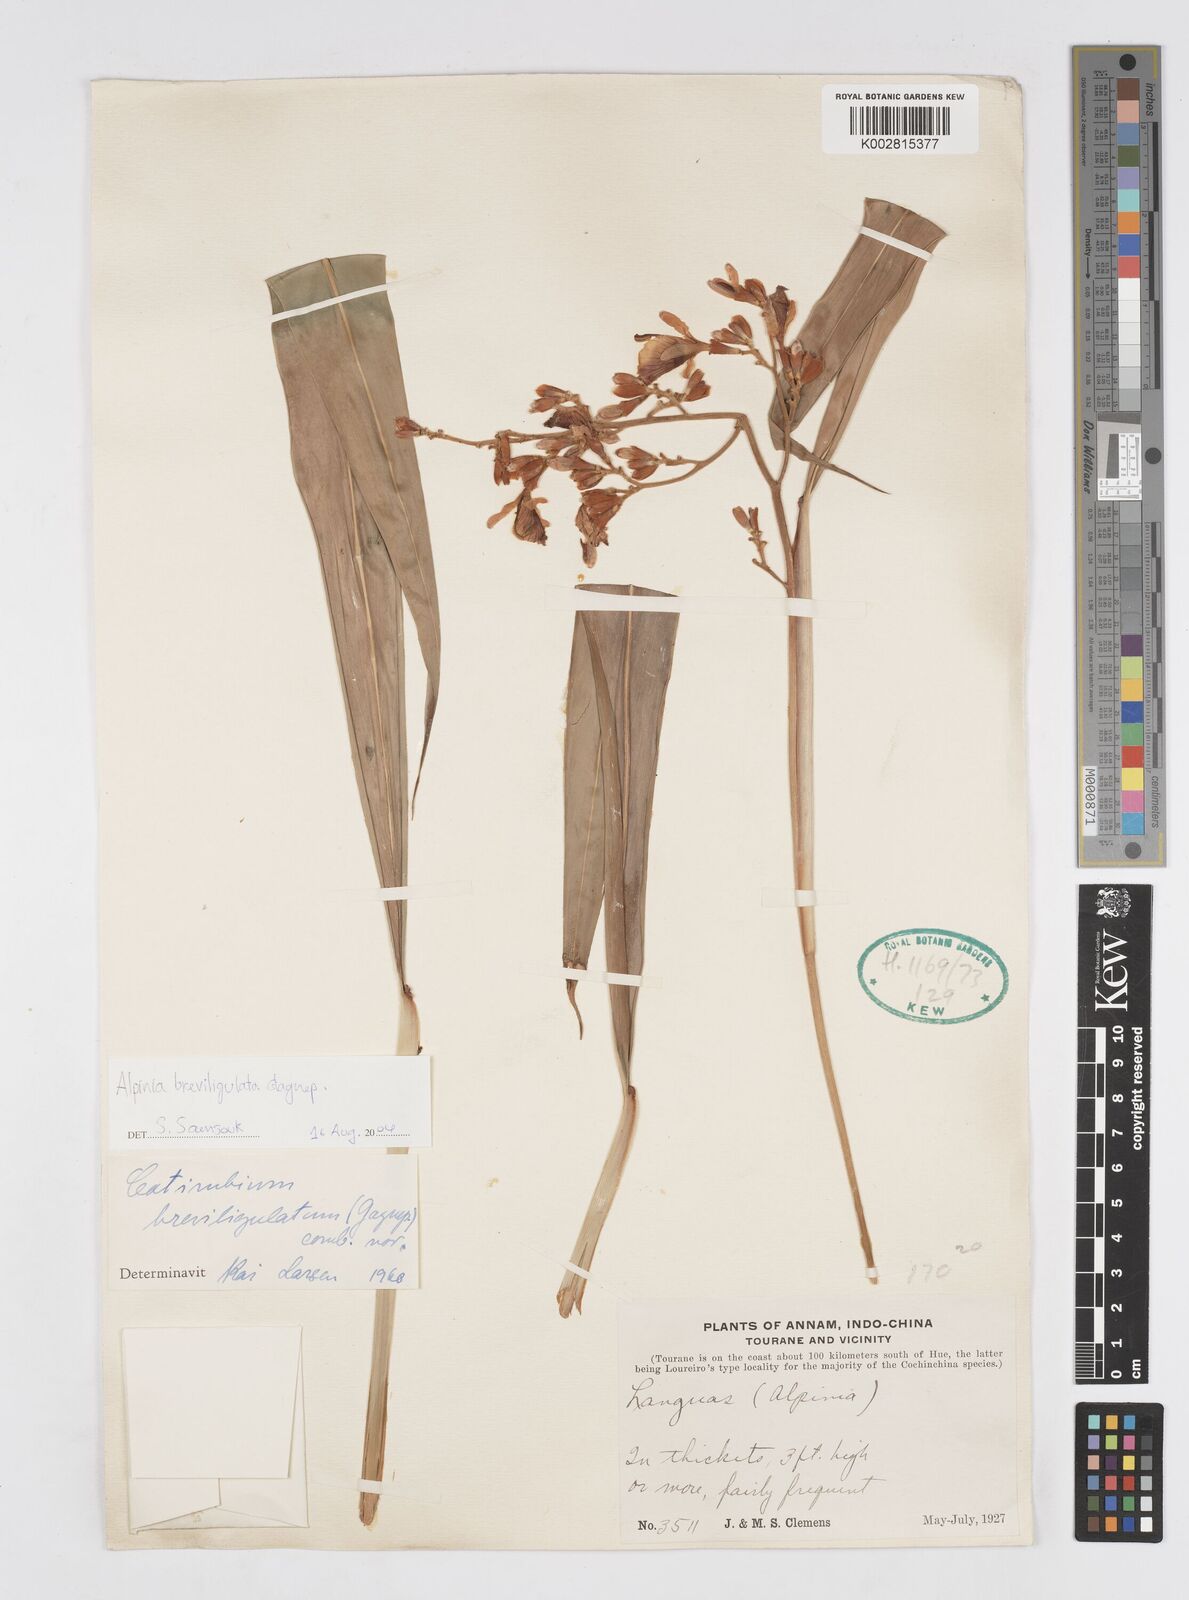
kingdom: Plantae
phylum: Tracheophyta
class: Liliopsida
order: Zingiberales
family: Zingiberaceae
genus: Alpinia
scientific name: Alpinia breviligulata
